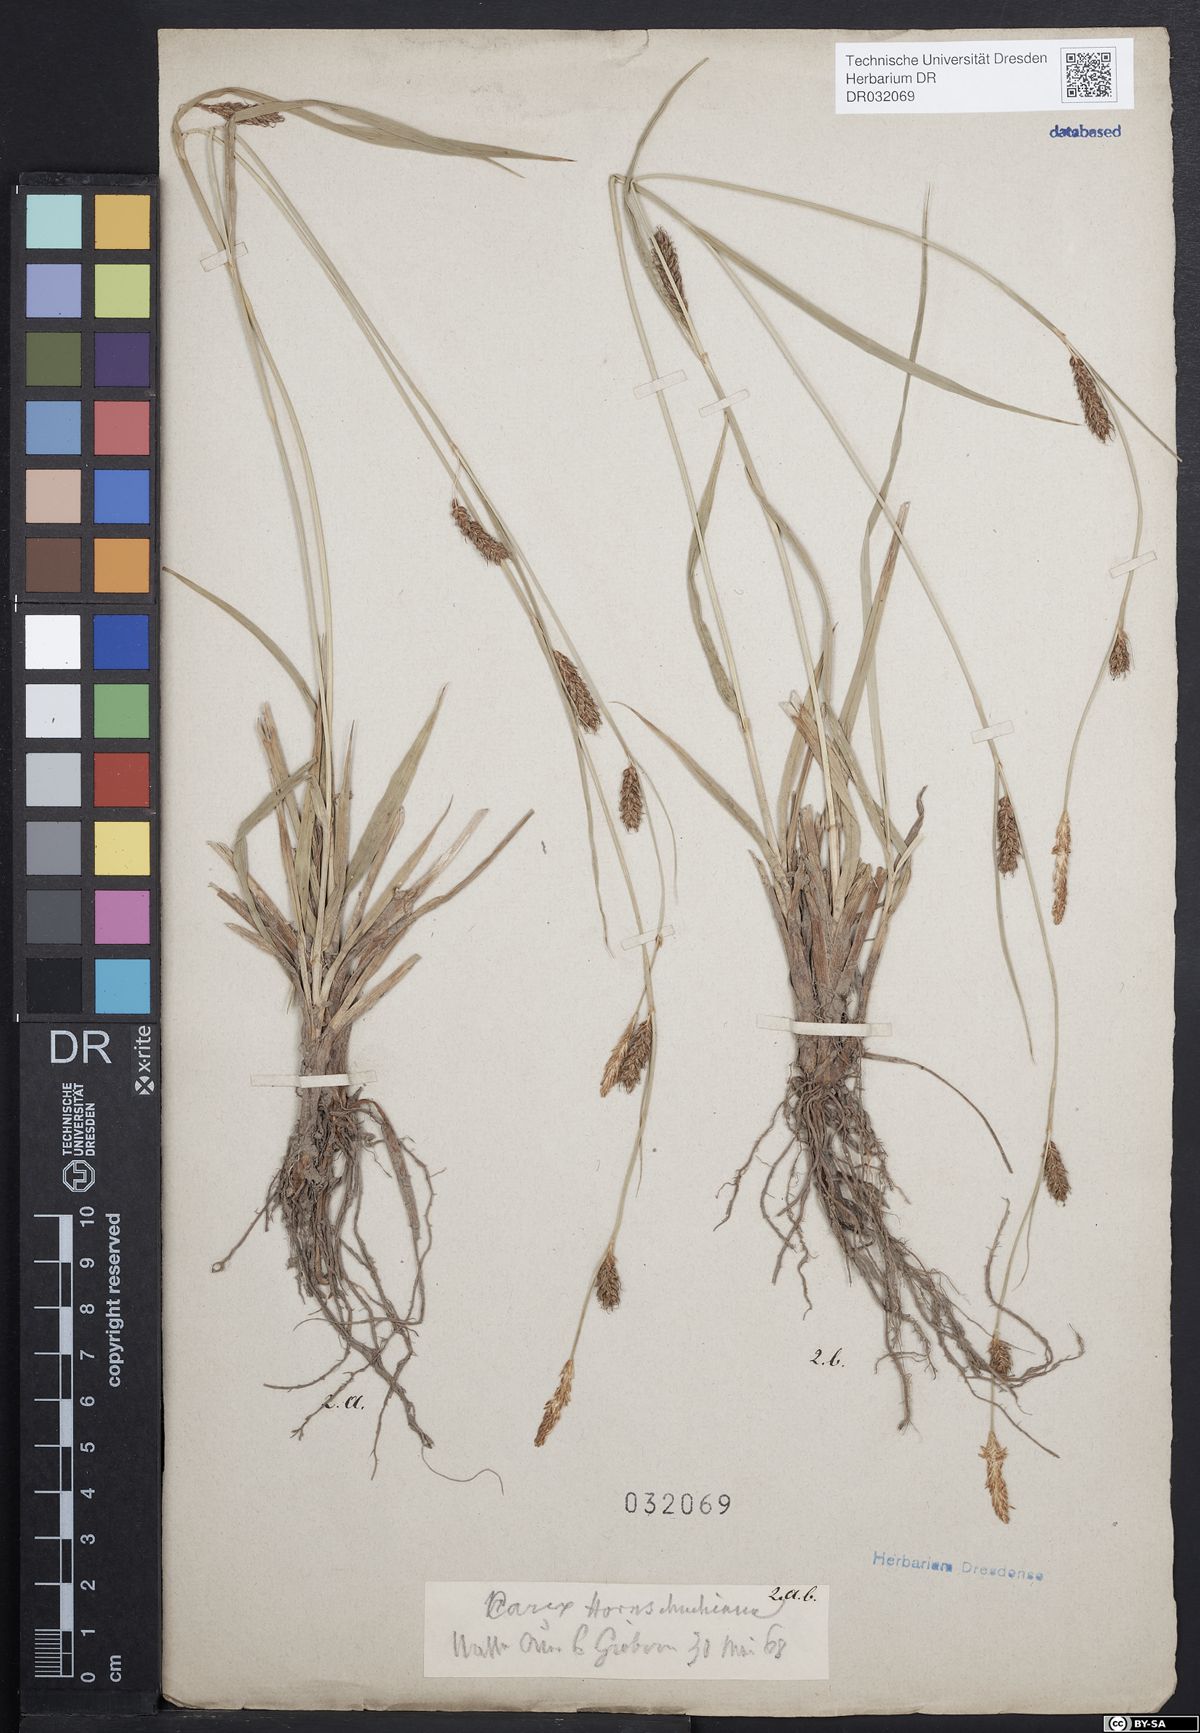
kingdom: Plantae
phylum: Tracheophyta
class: Liliopsida
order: Poales
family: Cyperaceae
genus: Carex
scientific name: Carex hostiana
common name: Tawny sedge
